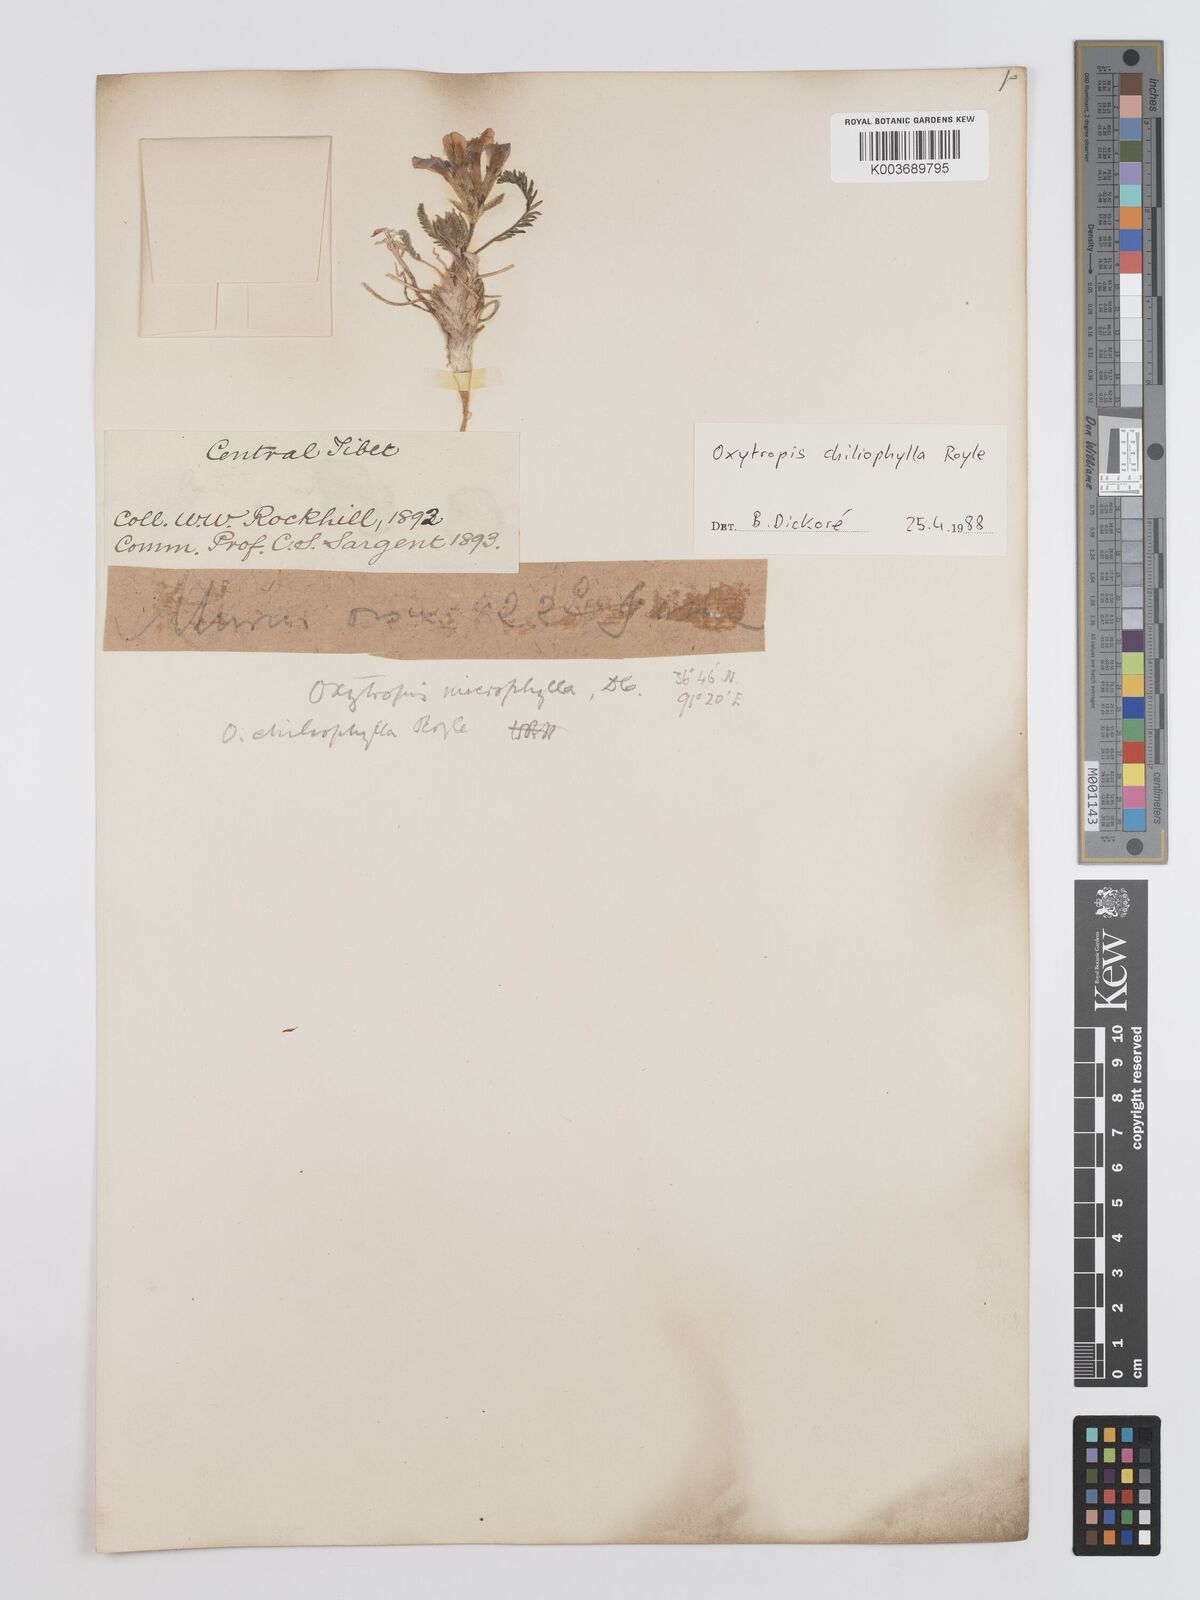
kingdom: Plantae
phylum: Tracheophyta
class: Magnoliopsida
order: Fabales
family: Fabaceae
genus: Oxytropis
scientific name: Oxytropis chiliophylla
